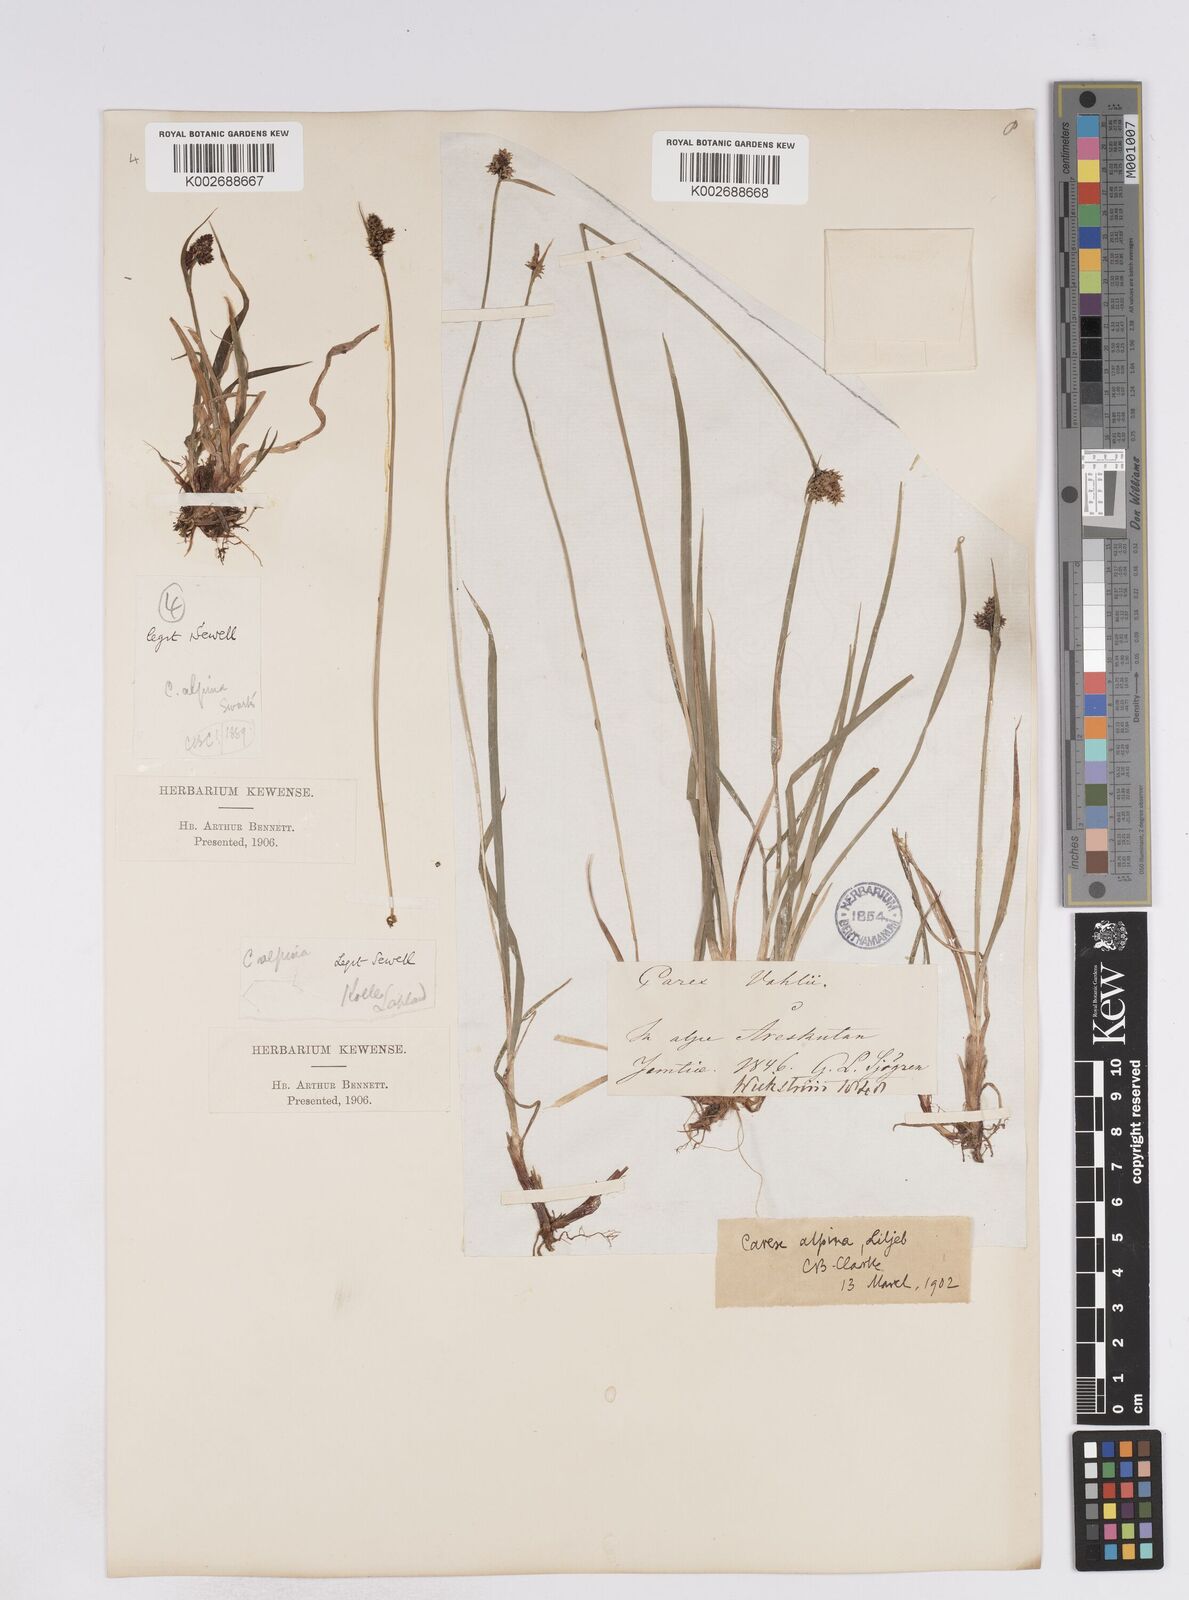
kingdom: Plantae
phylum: Tracheophyta
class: Liliopsida
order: Poales
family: Cyperaceae
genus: Carex
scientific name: Carex media
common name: Alpine sedge
